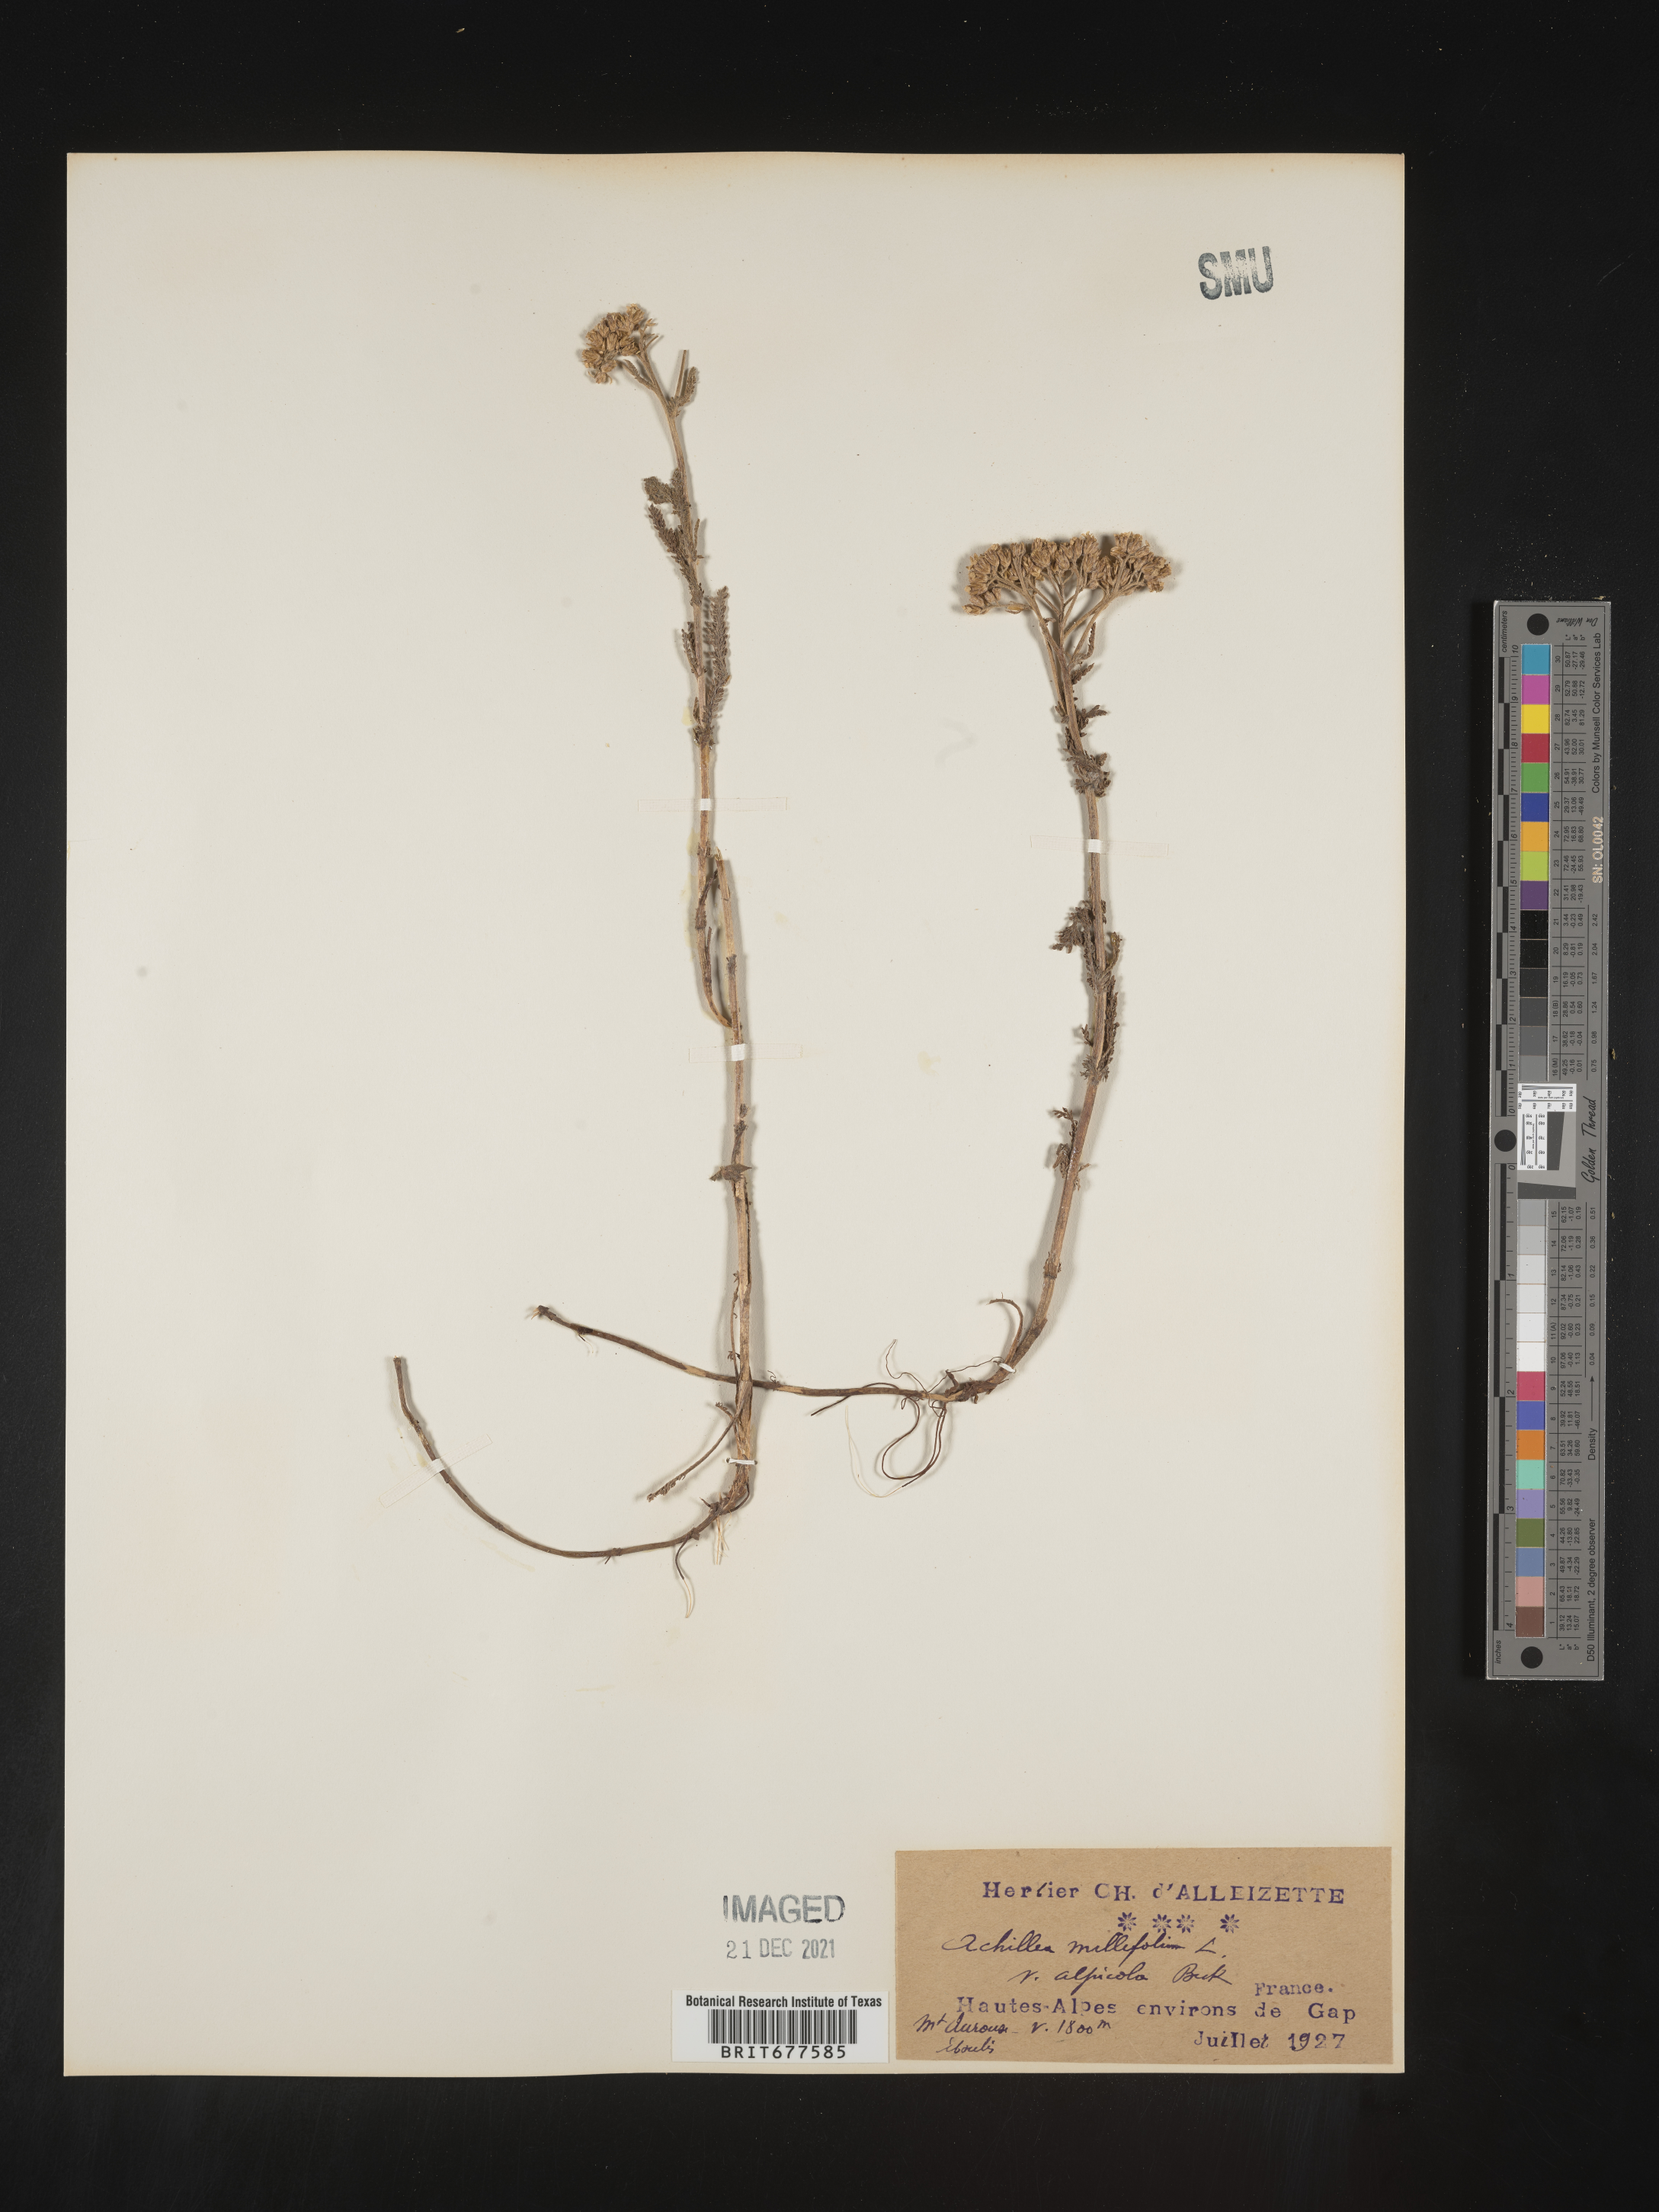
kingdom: Plantae
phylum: Tracheophyta
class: Magnoliopsida
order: Asterales
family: Asteraceae
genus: Achillea
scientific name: Achillea millefolium
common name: Yarrow
